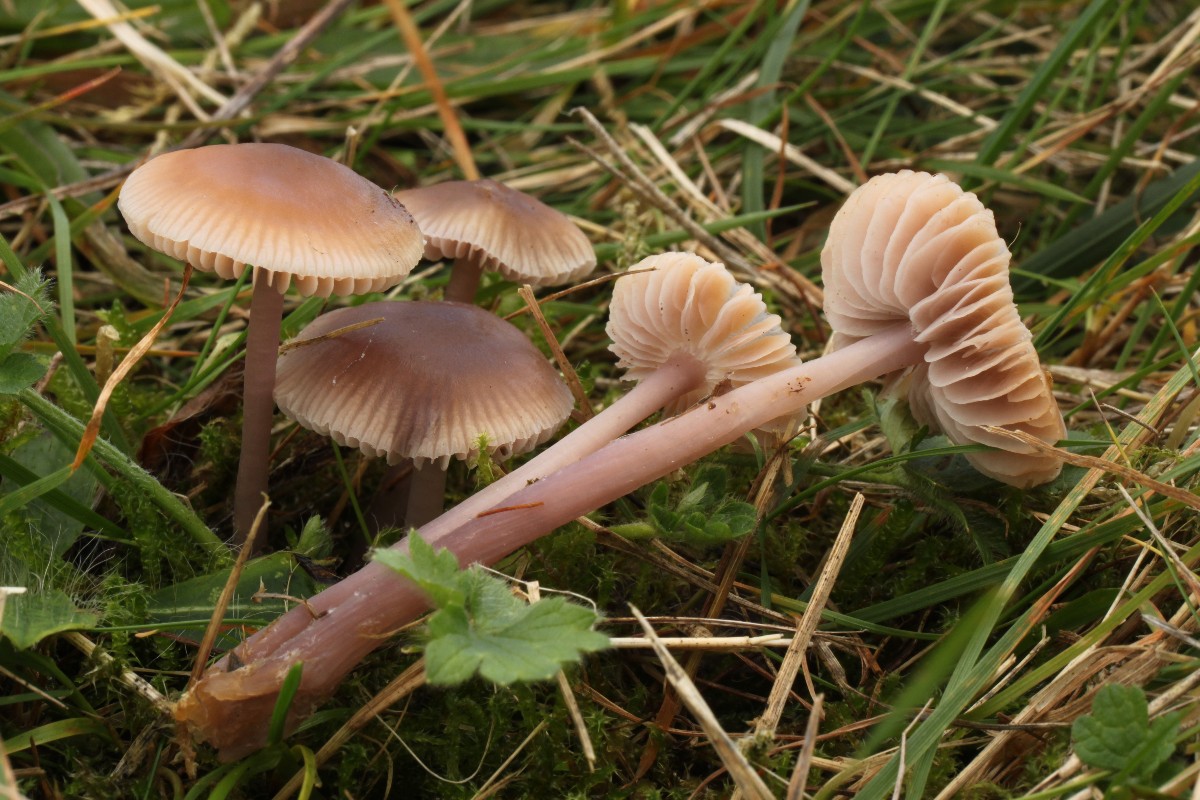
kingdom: Fungi
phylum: Basidiomycota
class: Agaricomycetes
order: Agaricales
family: Mycenaceae
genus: Mycena
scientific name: Mycena luteovariegata
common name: lillagul huesvamp
